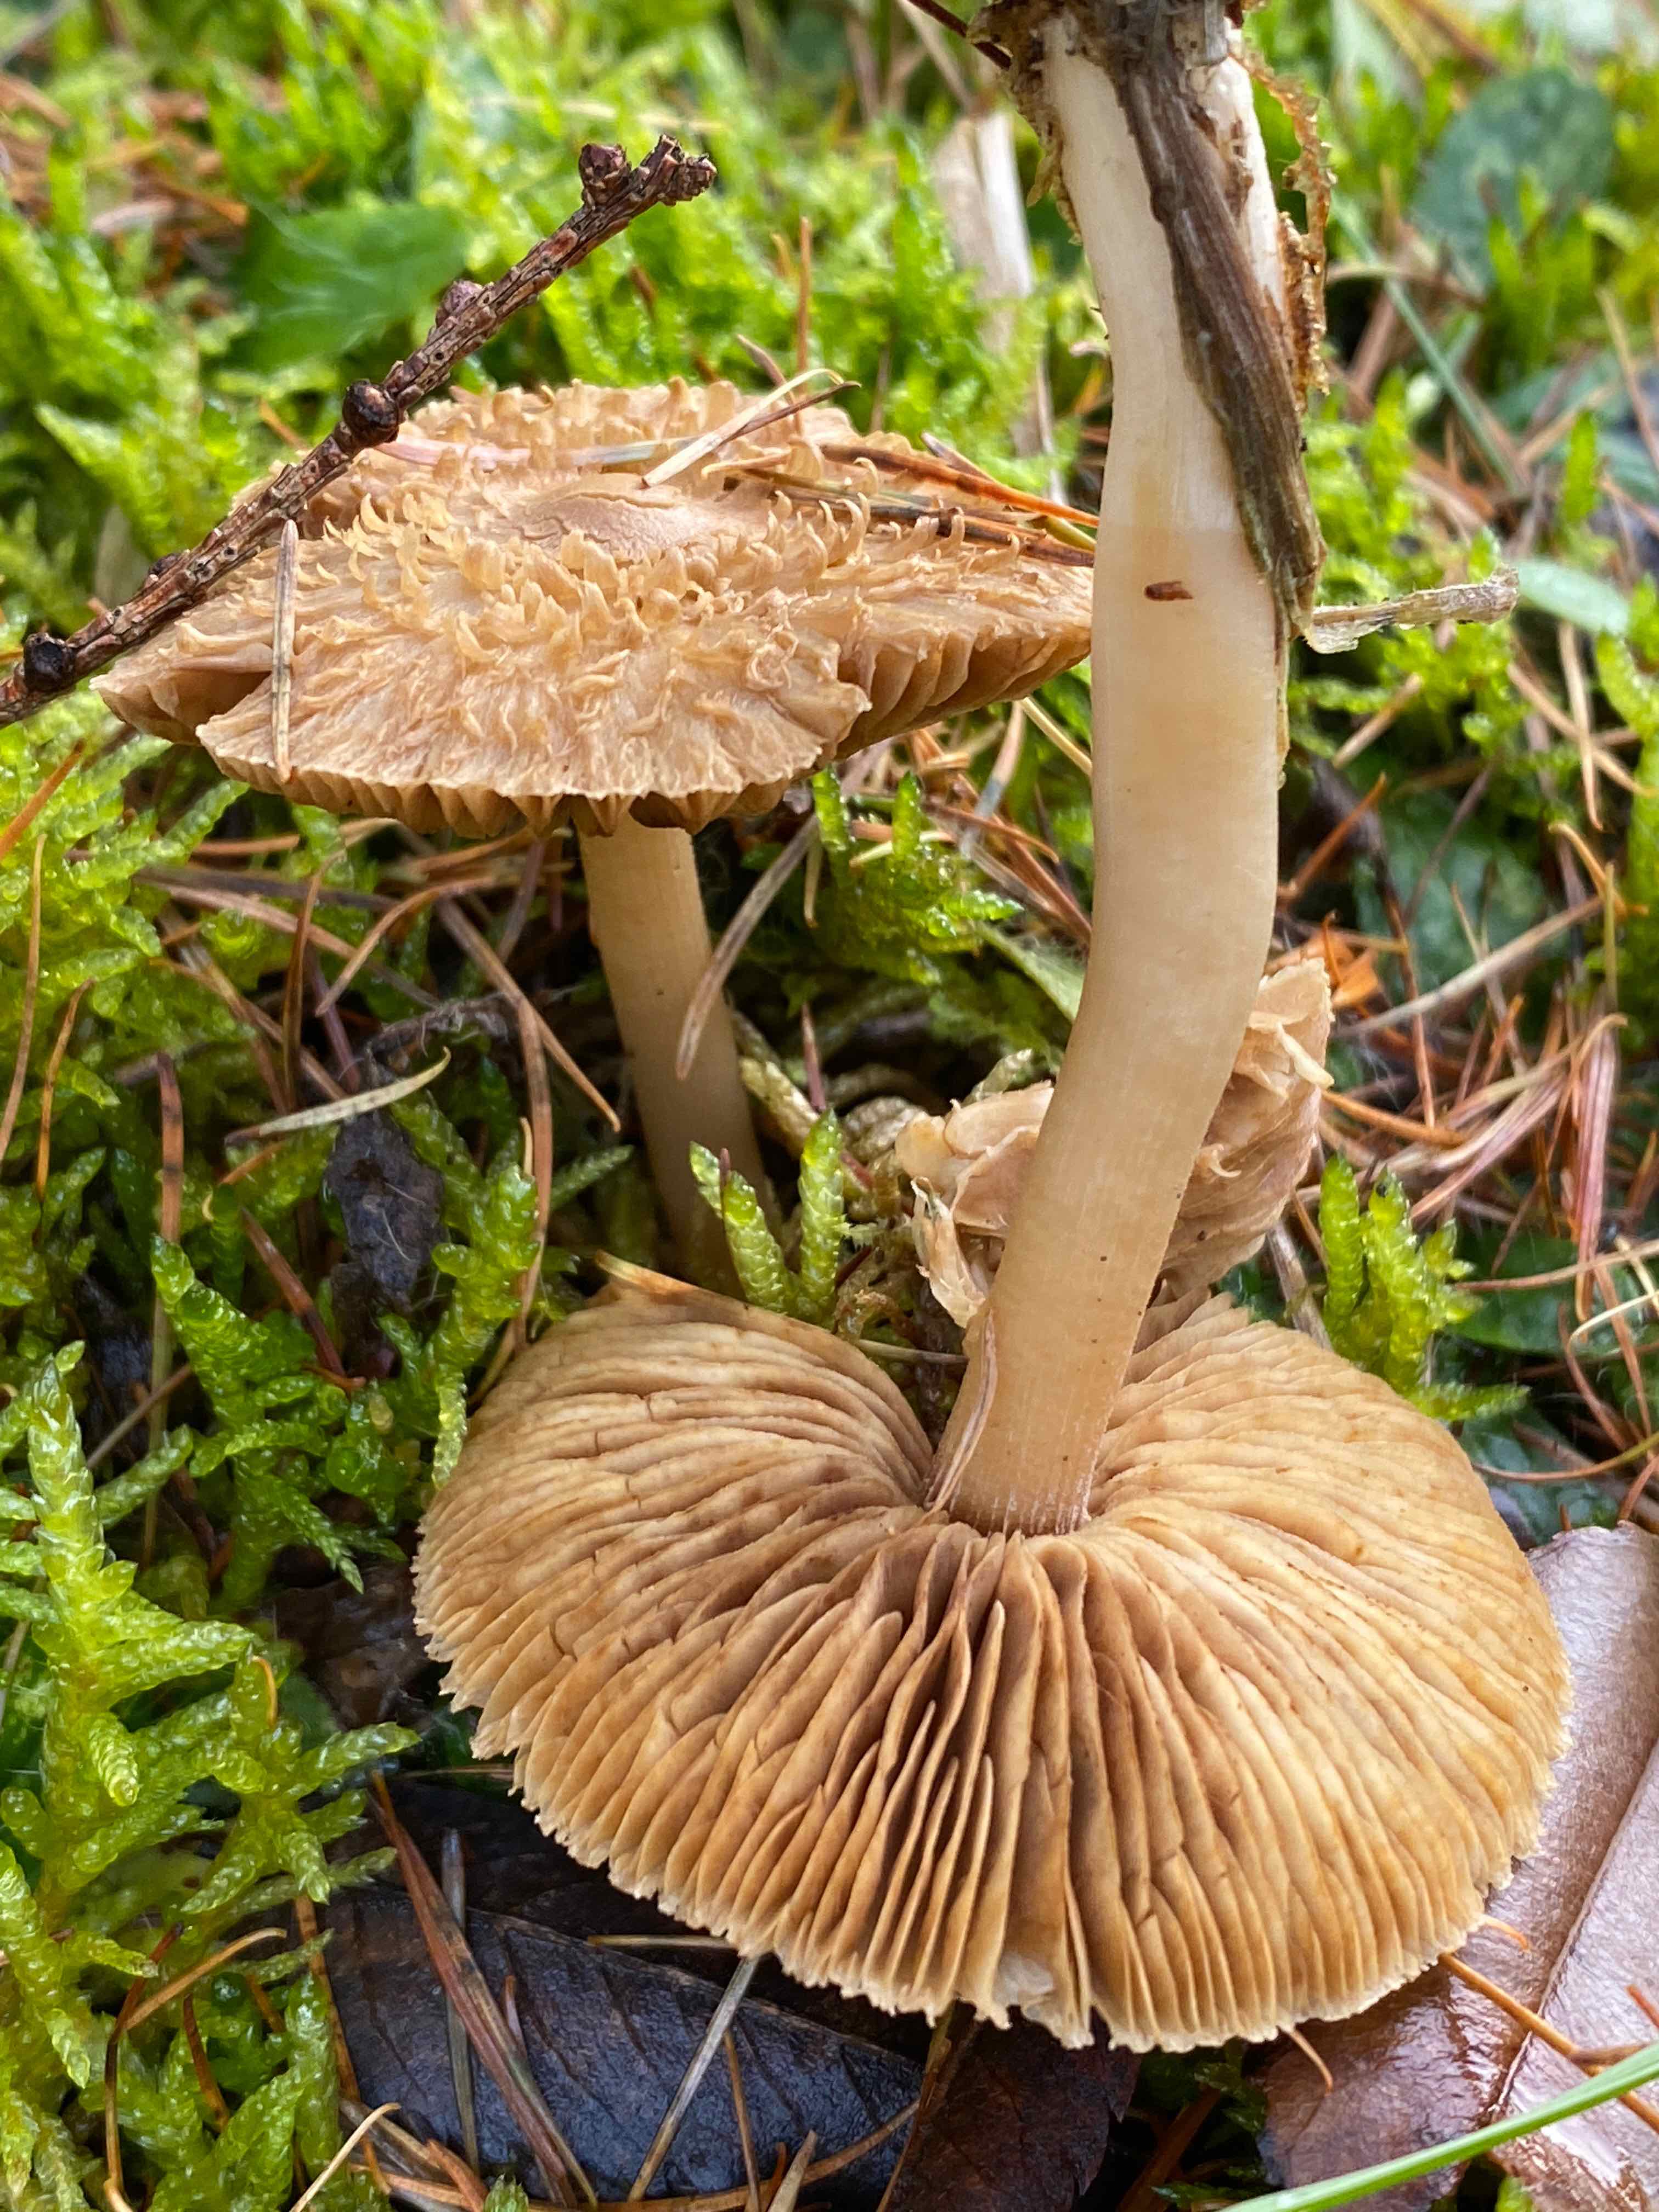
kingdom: Fungi
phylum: Basidiomycota
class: Agaricomycetes
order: Agaricales
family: Inocybaceae
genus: Inocybe
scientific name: Inocybe
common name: trævlhat
